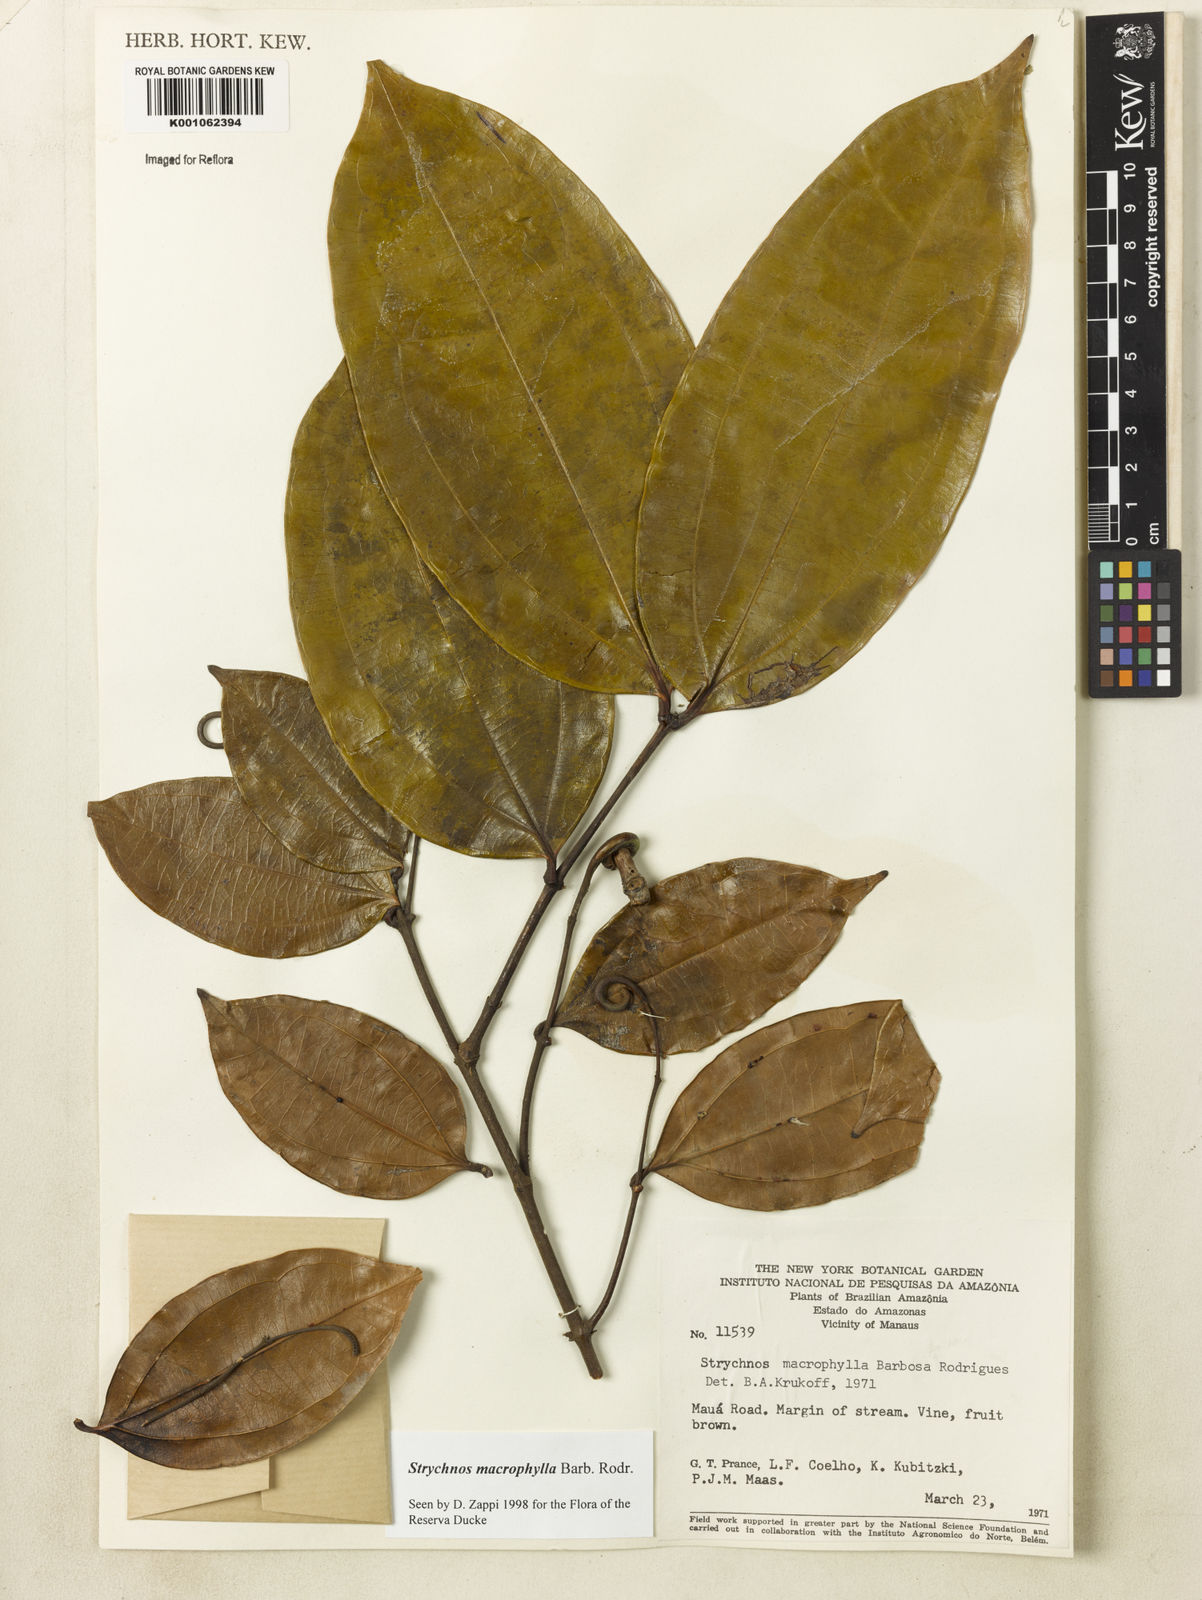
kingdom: Plantae
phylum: Tracheophyta
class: Magnoliopsida
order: Gentianales
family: Loganiaceae
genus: Strychnos
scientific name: Strychnos
